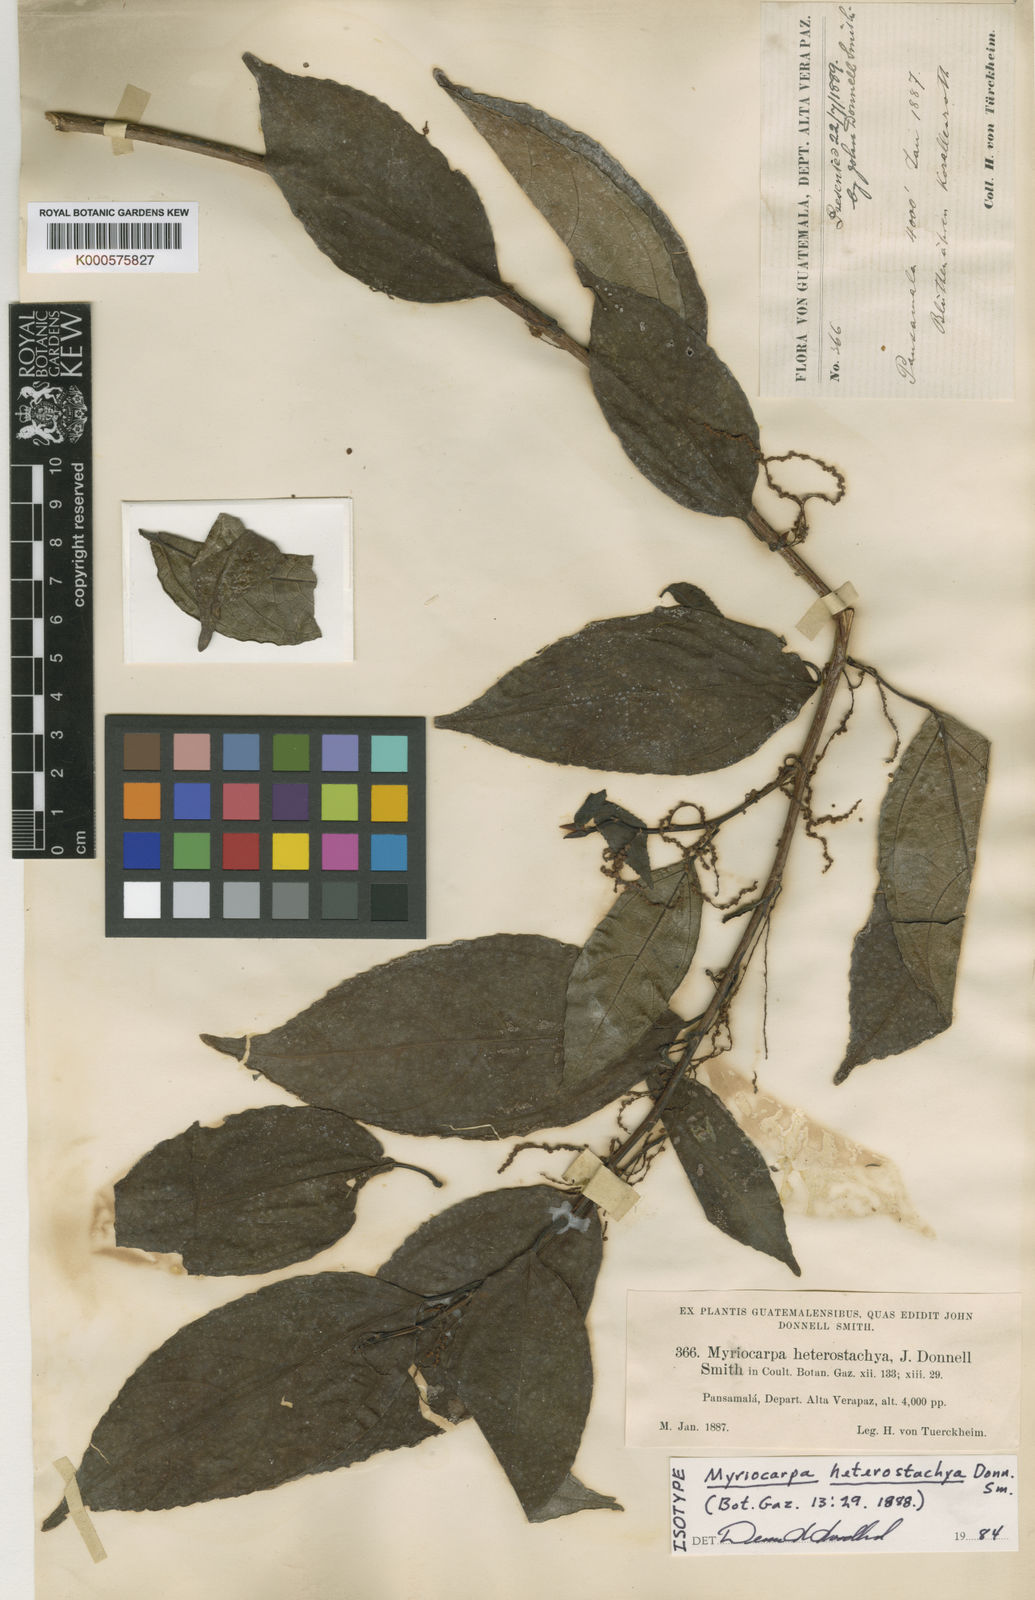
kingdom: Plantae
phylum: Tracheophyta
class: Magnoliopsida
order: Rosales
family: Urticaceae
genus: Myriocarpa
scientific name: Myriocarpa heterospicata
